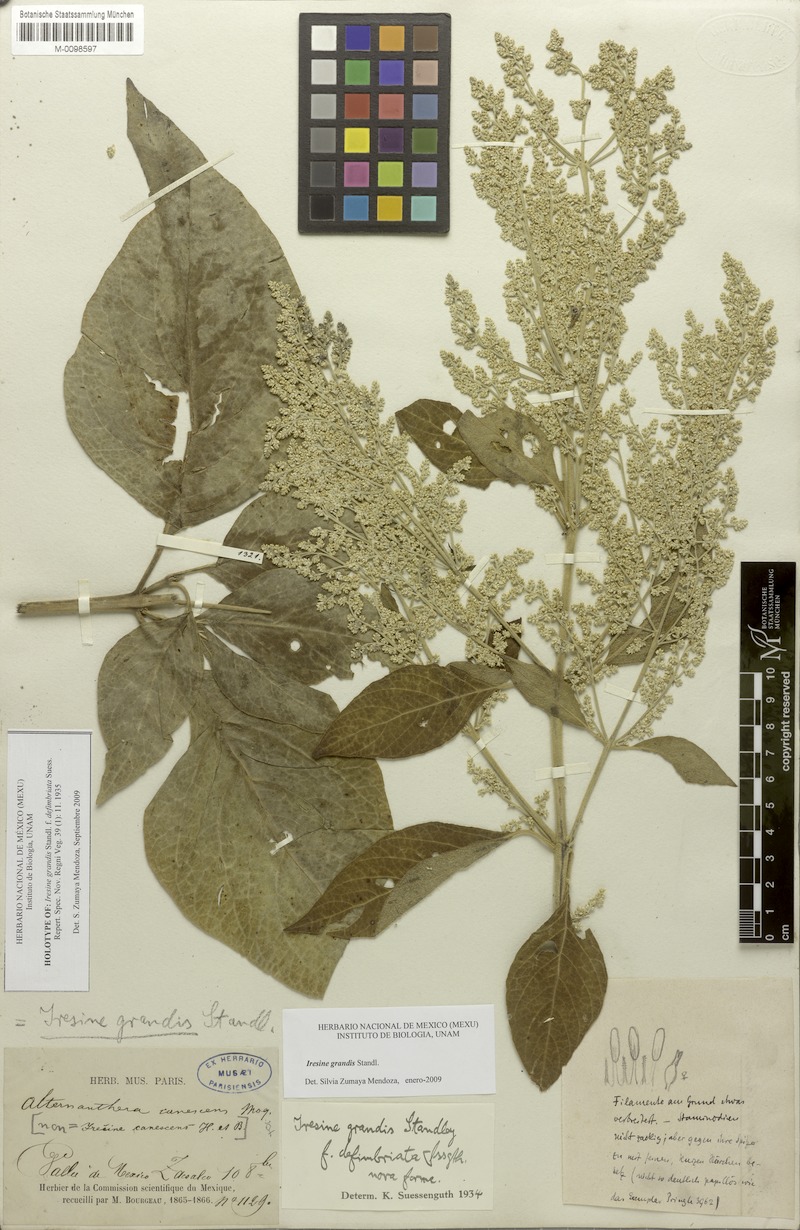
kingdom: Plantae
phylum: Tracheophyta
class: Magnoliopsida
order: Caryophyllales
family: Amaranthaceae
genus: Iresine
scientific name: Iresine cassiniiformis
